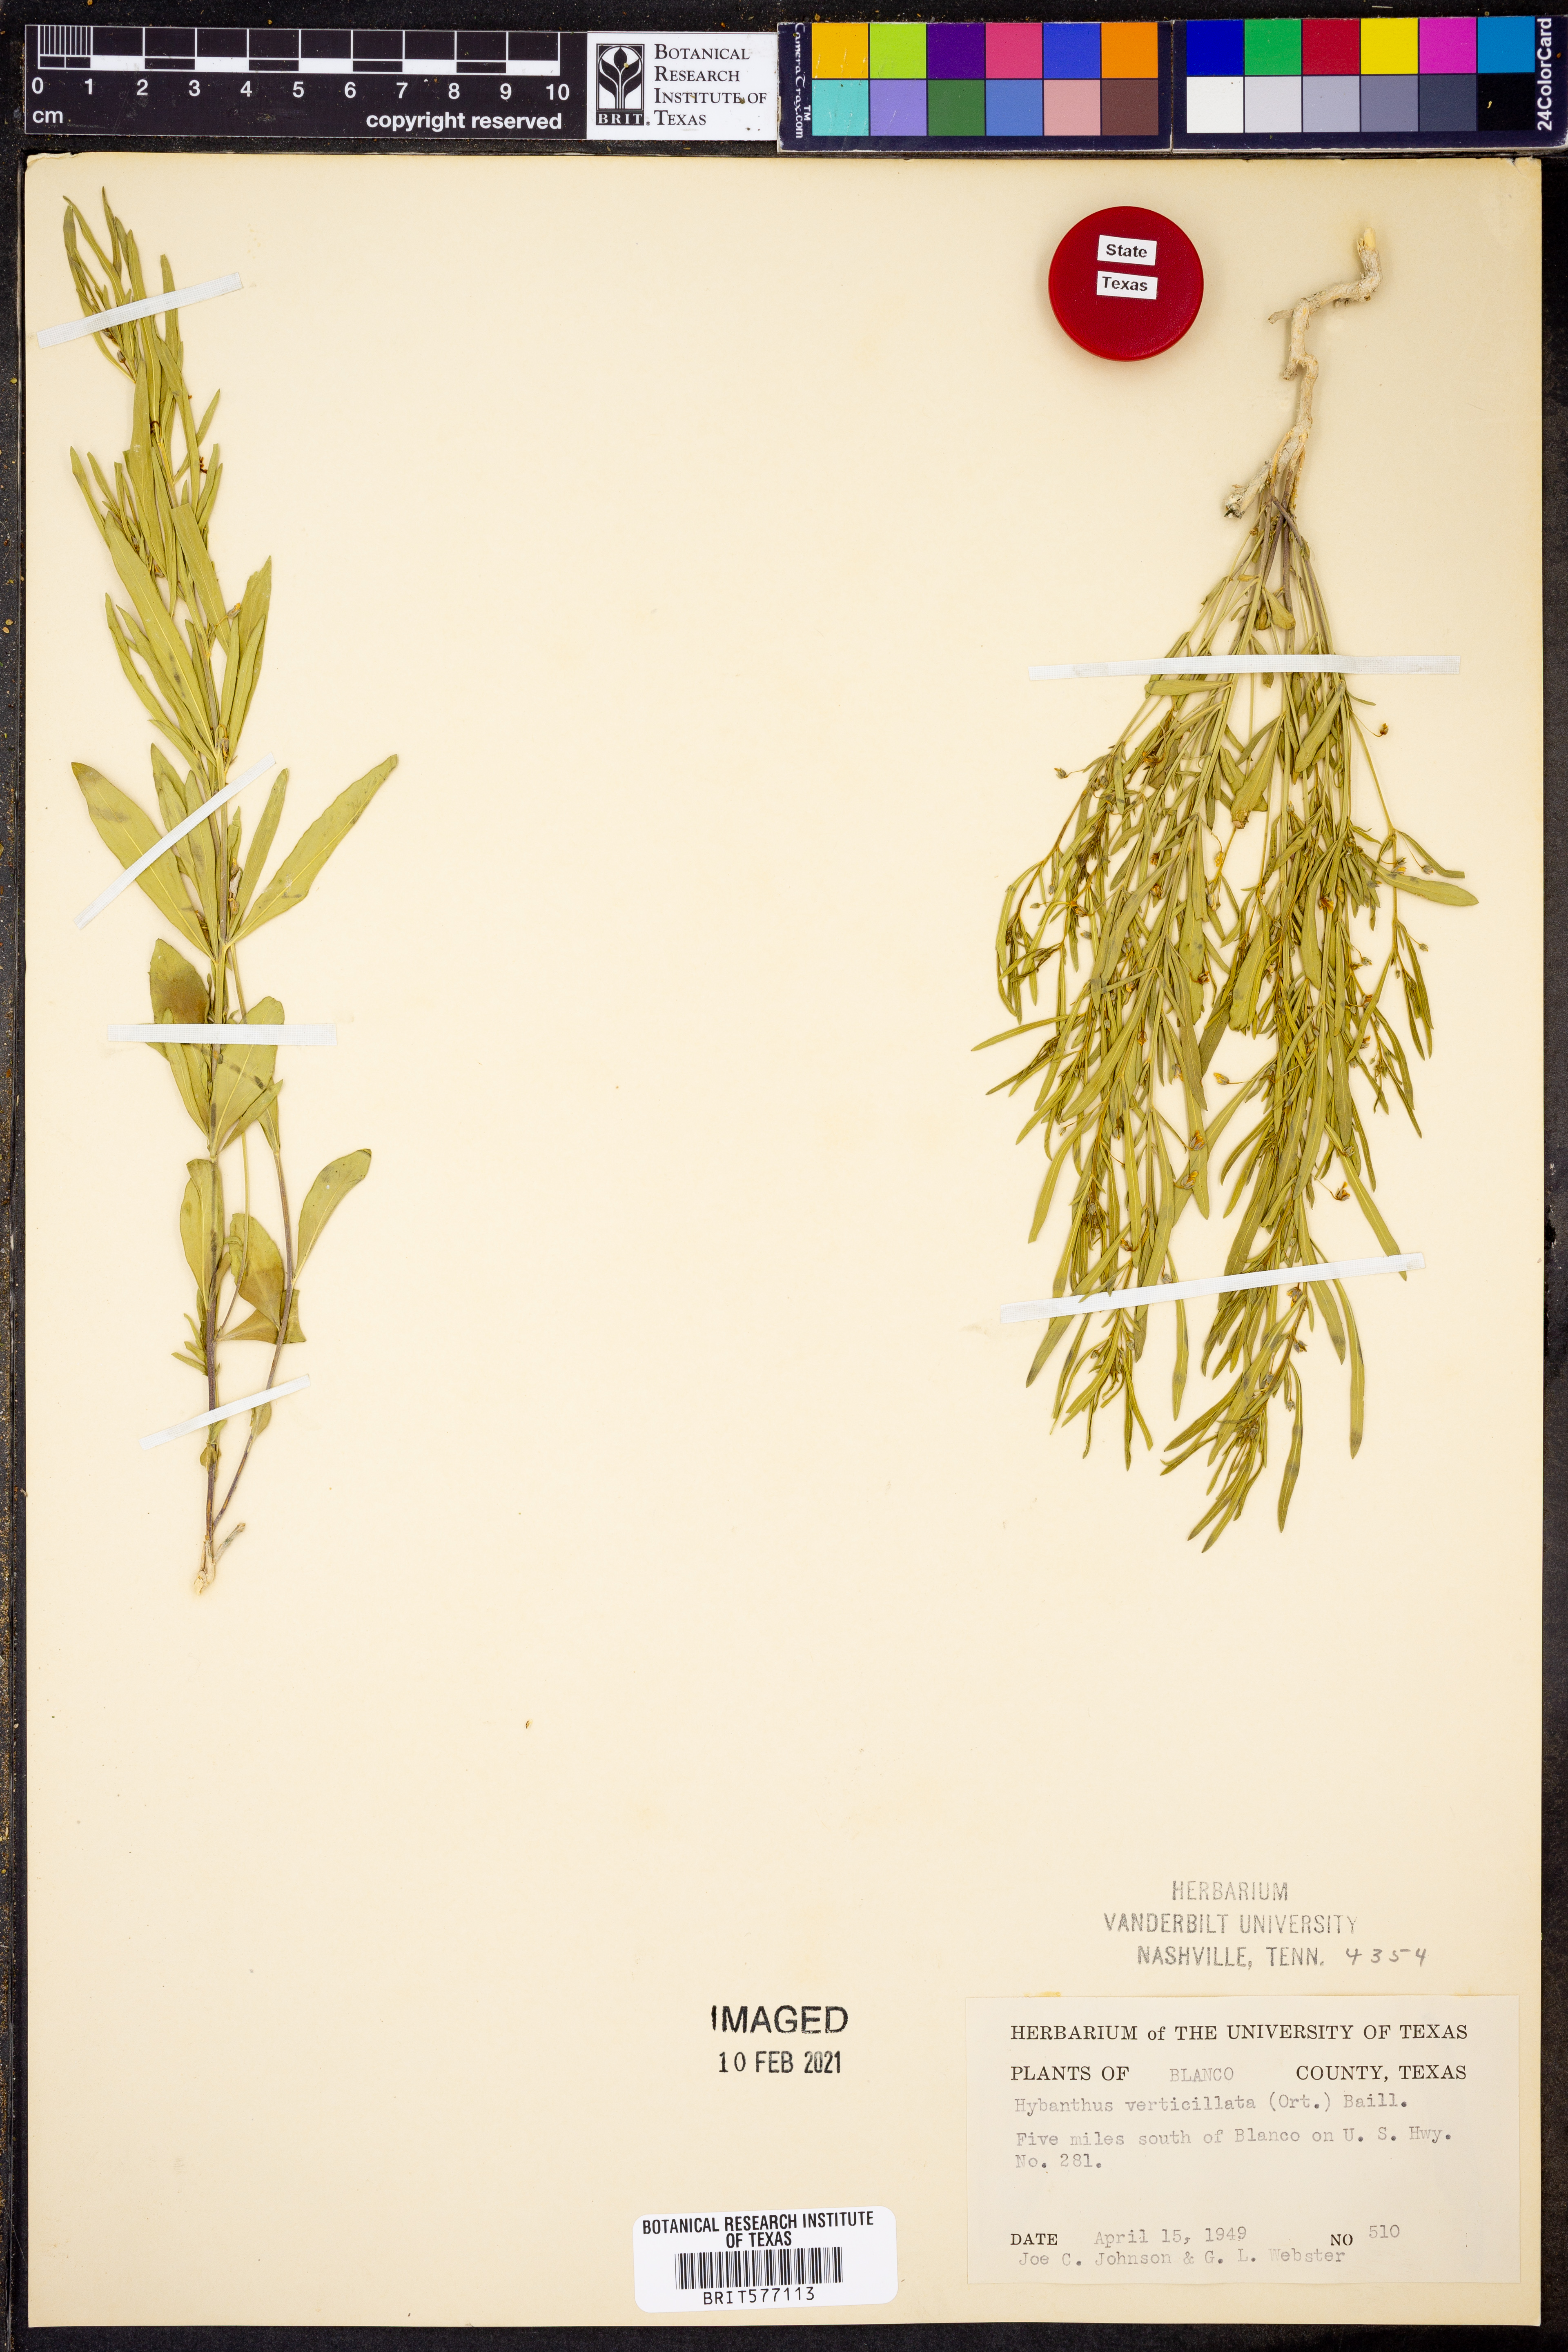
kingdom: Plantae
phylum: Tracheophyta
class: Magnoliopsida
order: Malpighiales
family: Violaceae
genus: Pombalia
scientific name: Pombalia verticillata
